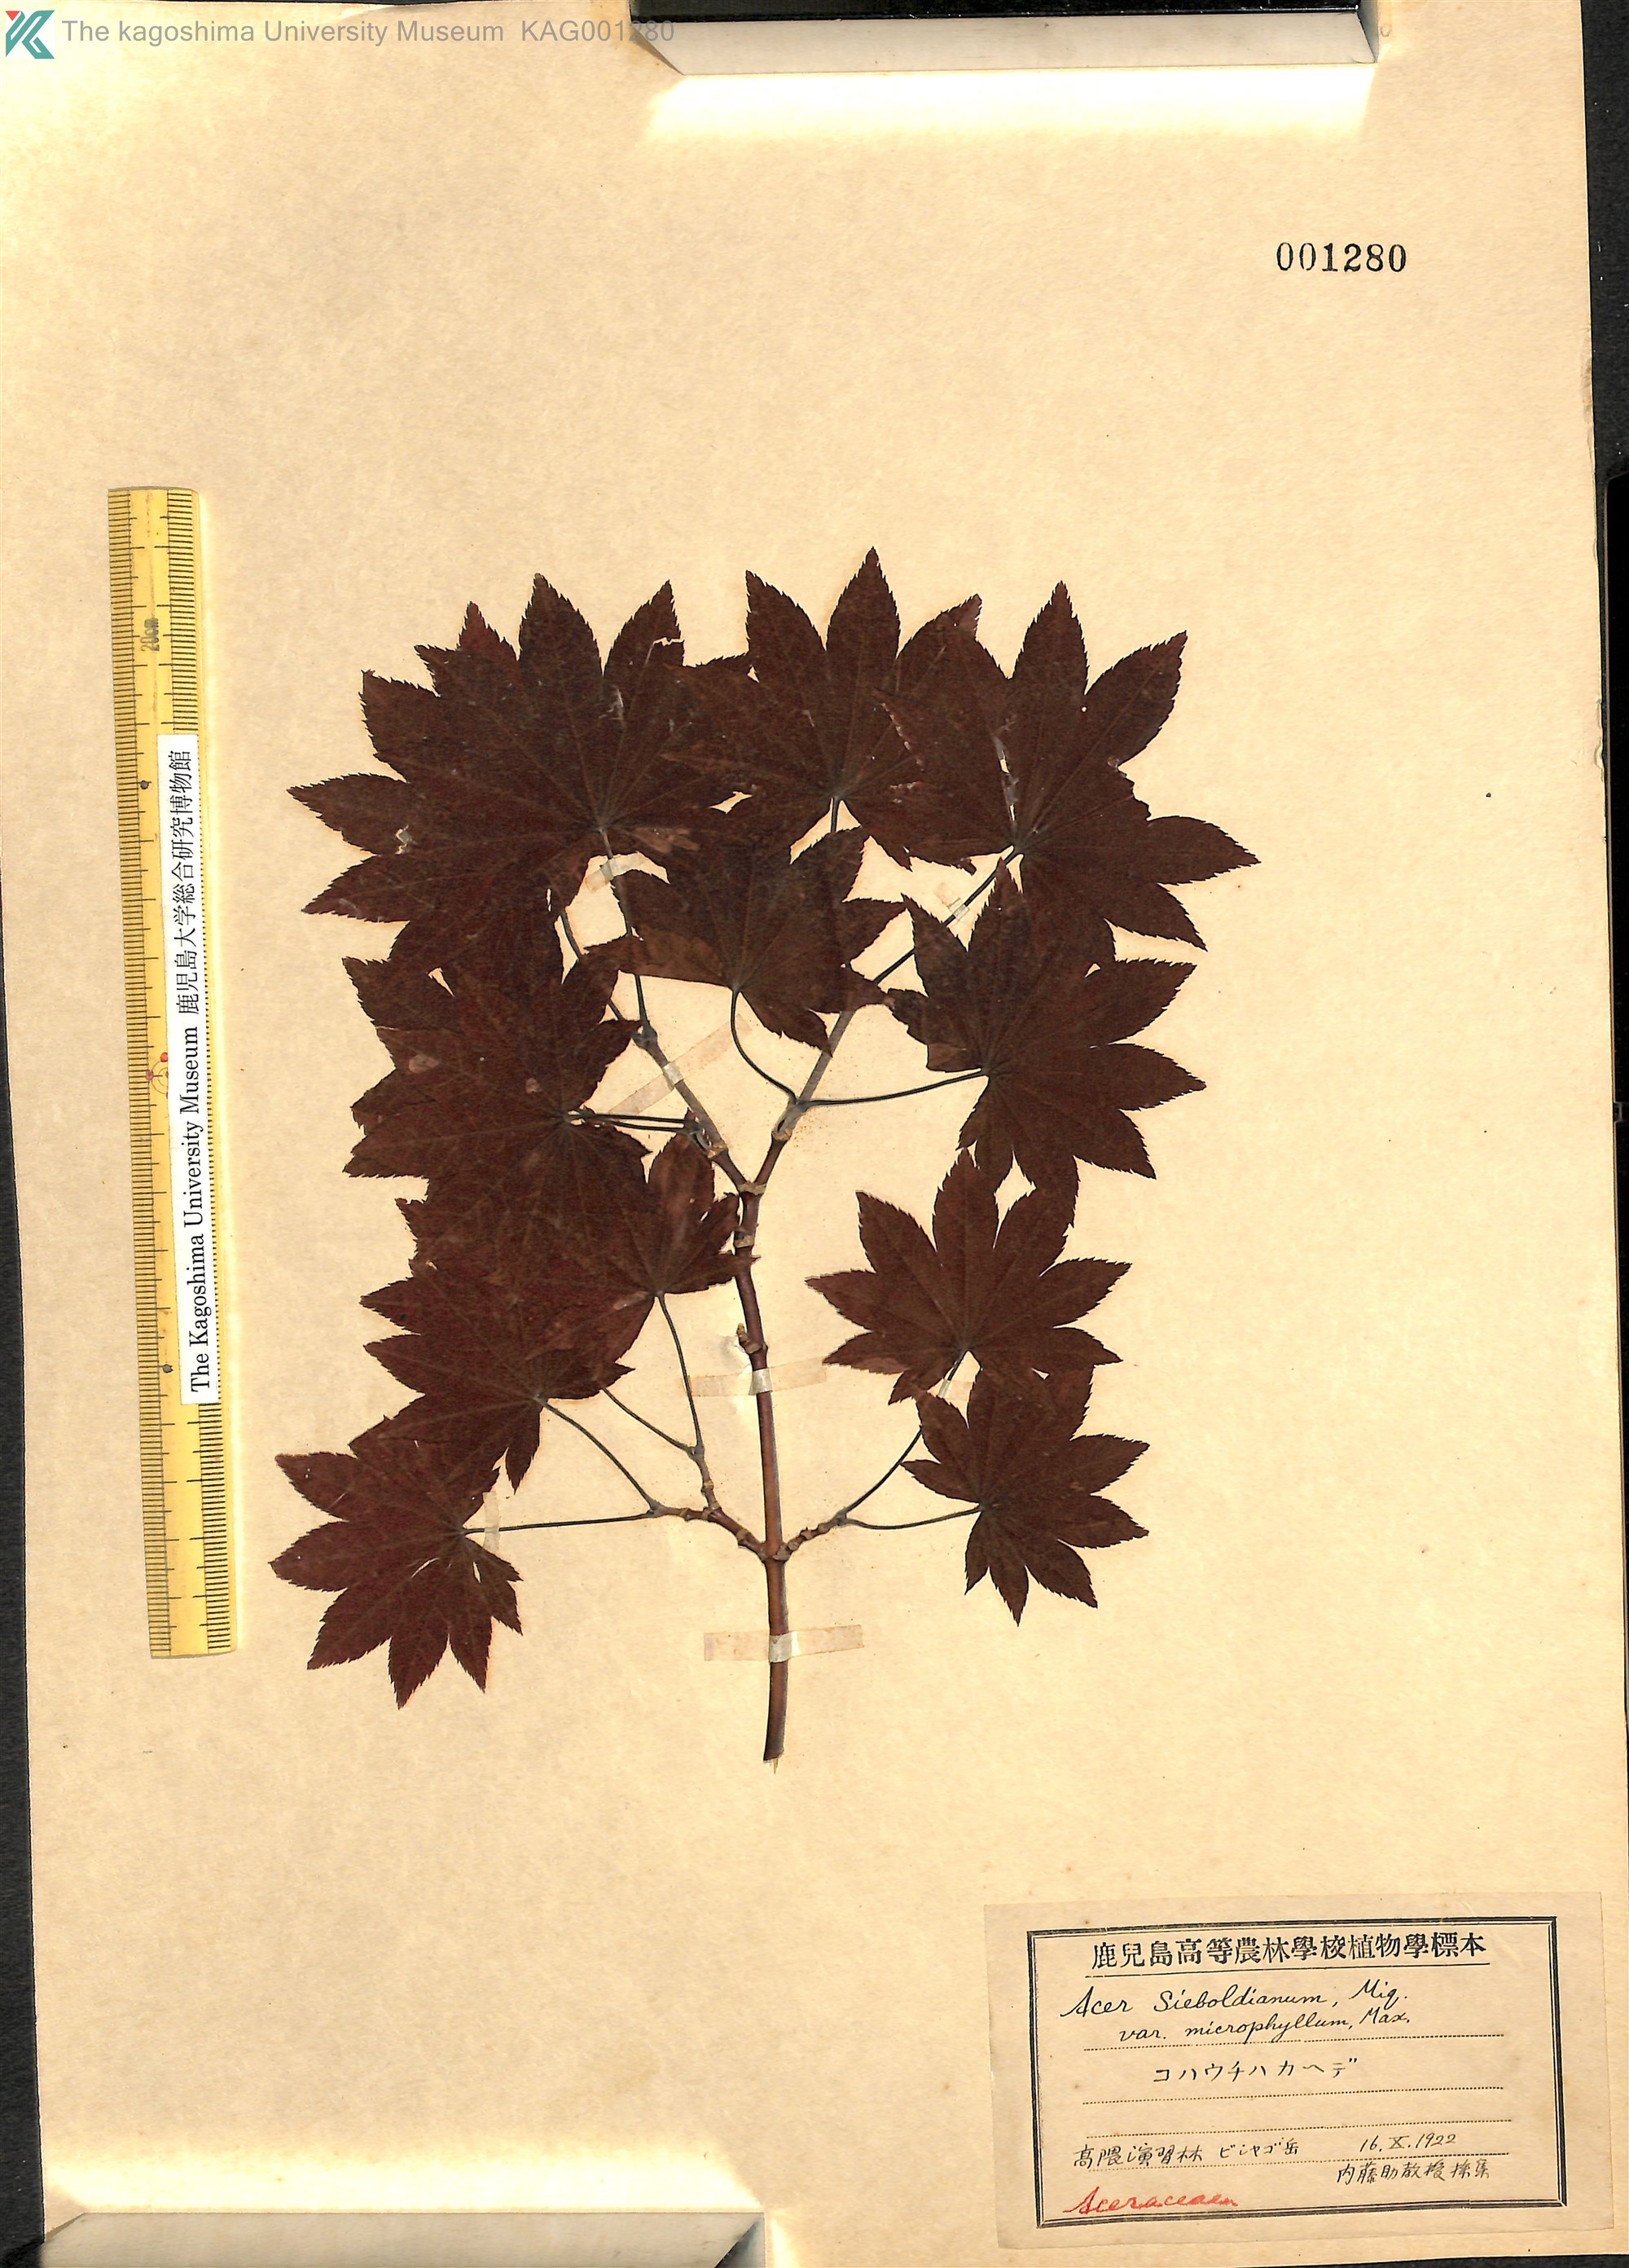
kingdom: Plantae
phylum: Tracheophyta
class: Magnoliopsida
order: Sapindales
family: Sapindaceae
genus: Acer
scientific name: Acer sieboldianum
